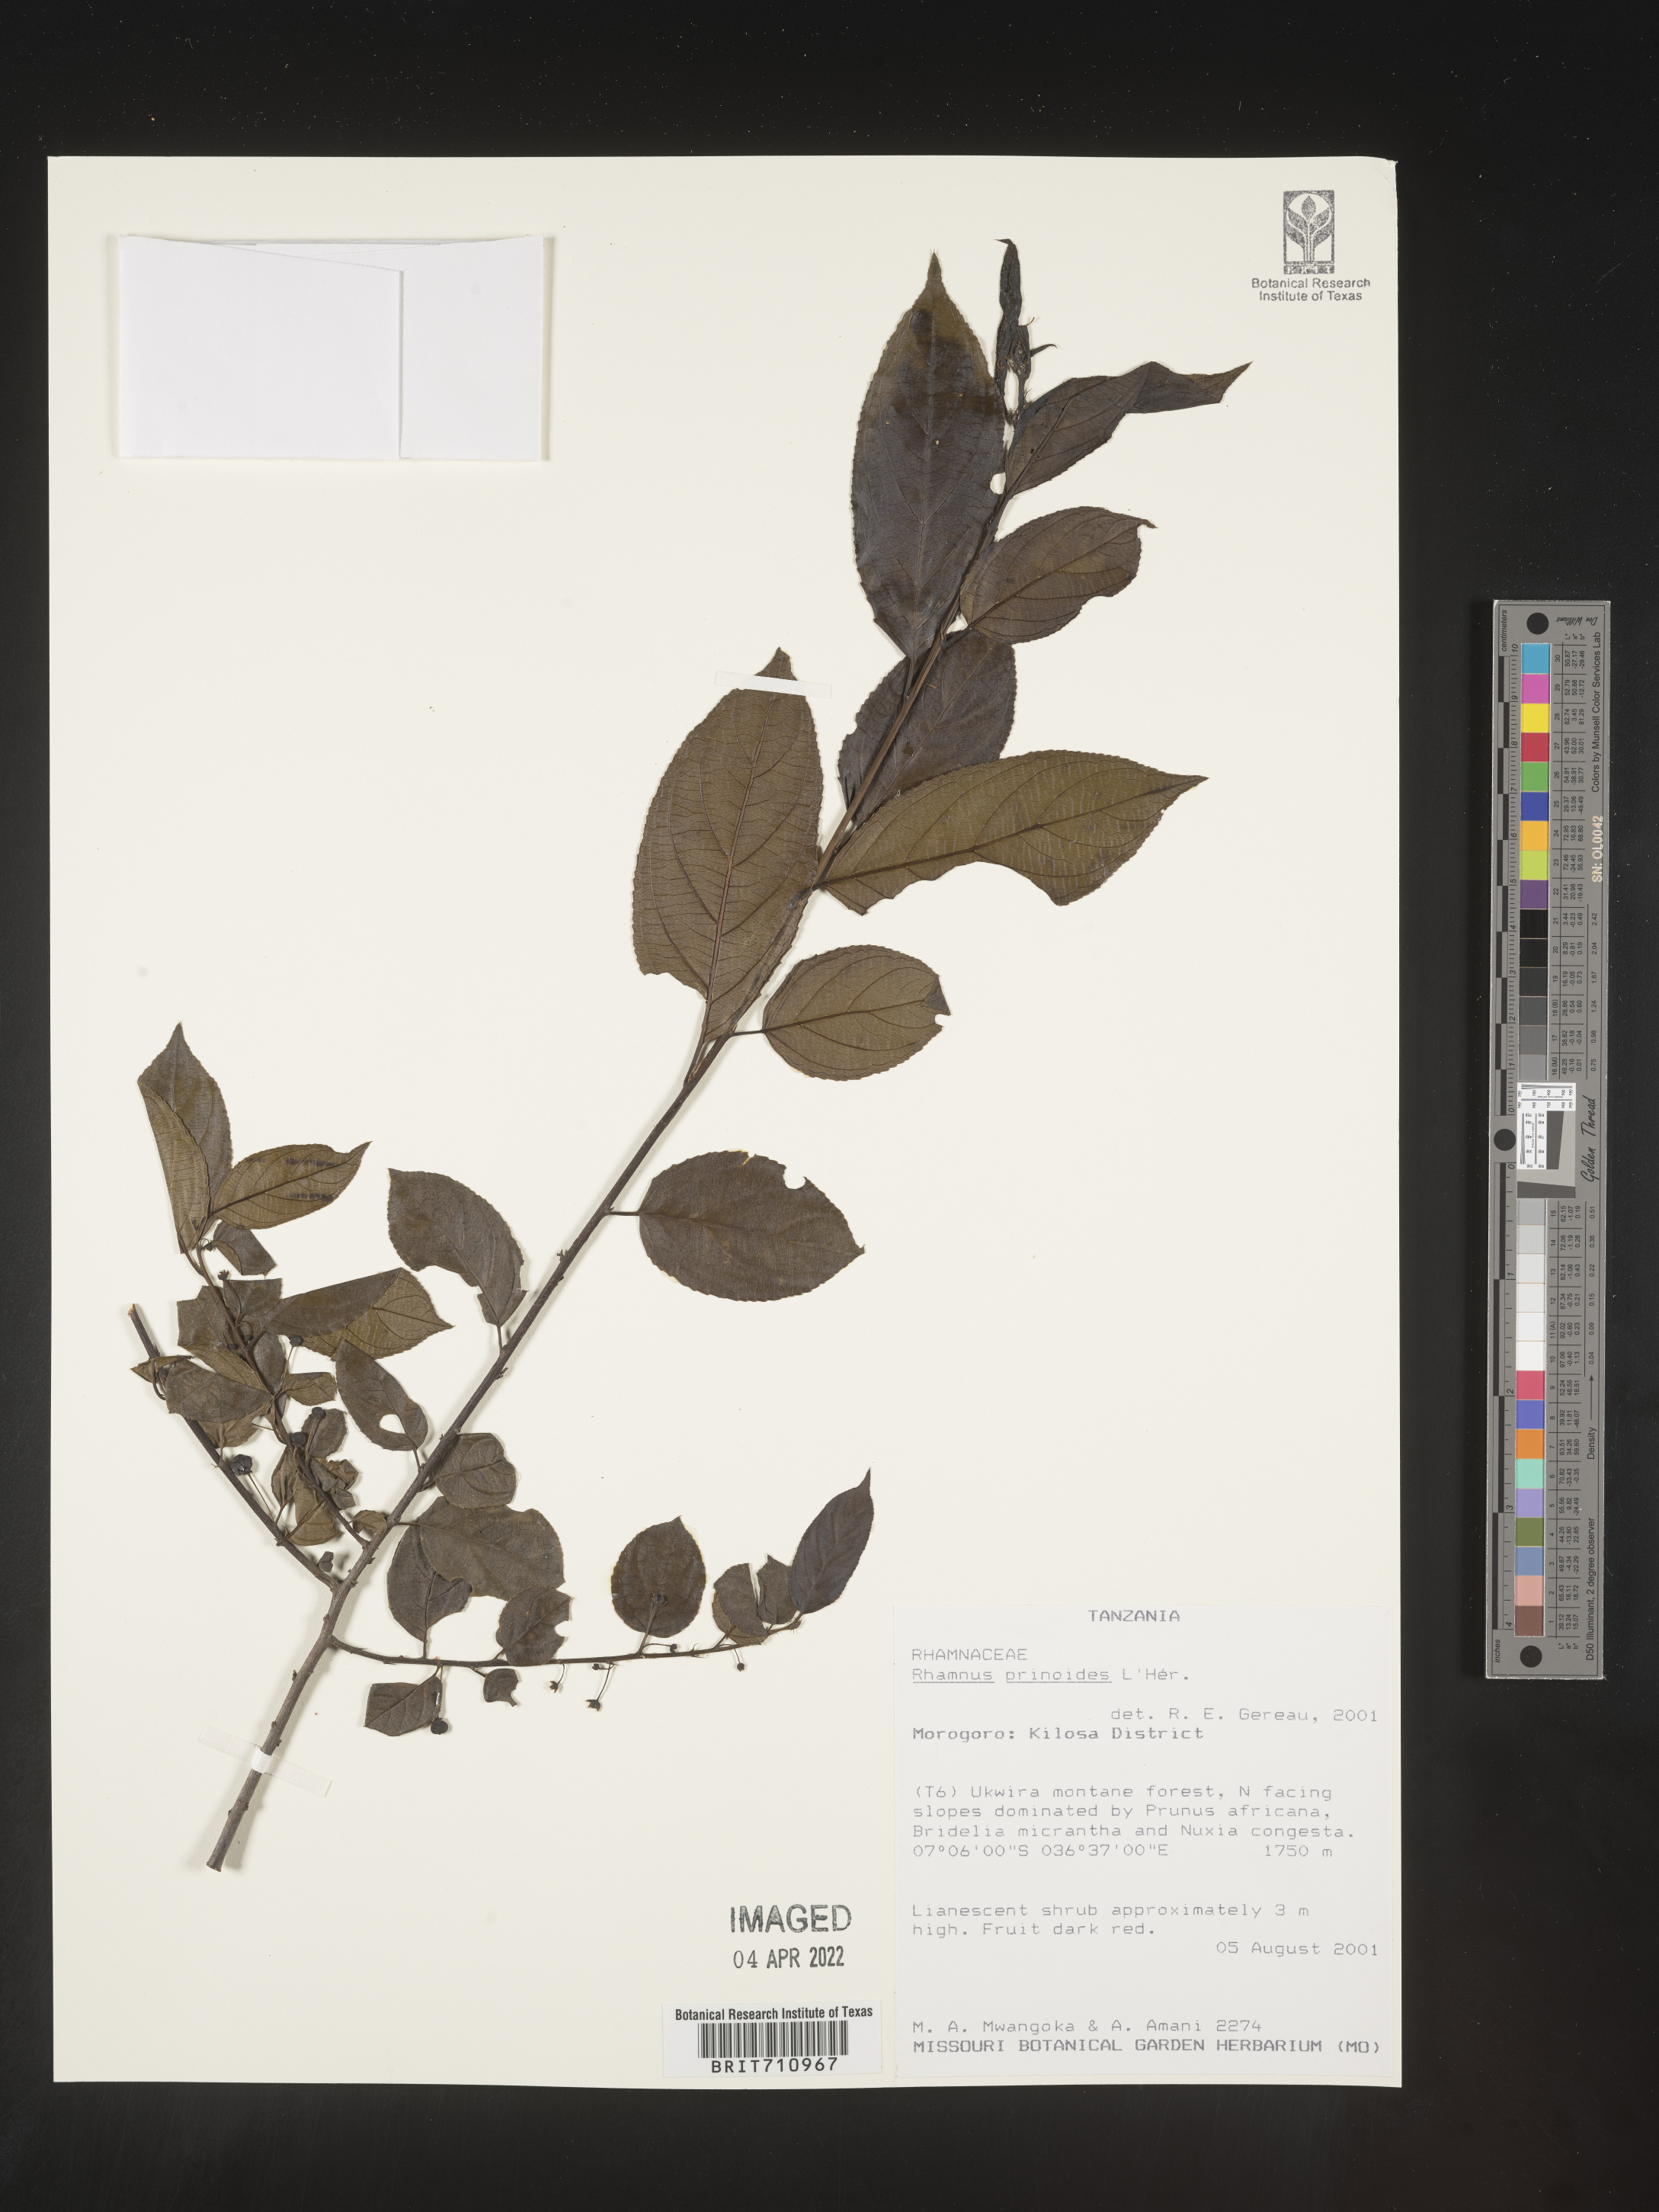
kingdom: Plantae
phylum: Tracheophyta
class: Magnoliopsida
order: Rosales
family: Rhamnaceae
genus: Rhamnus
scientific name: Rhamnus
